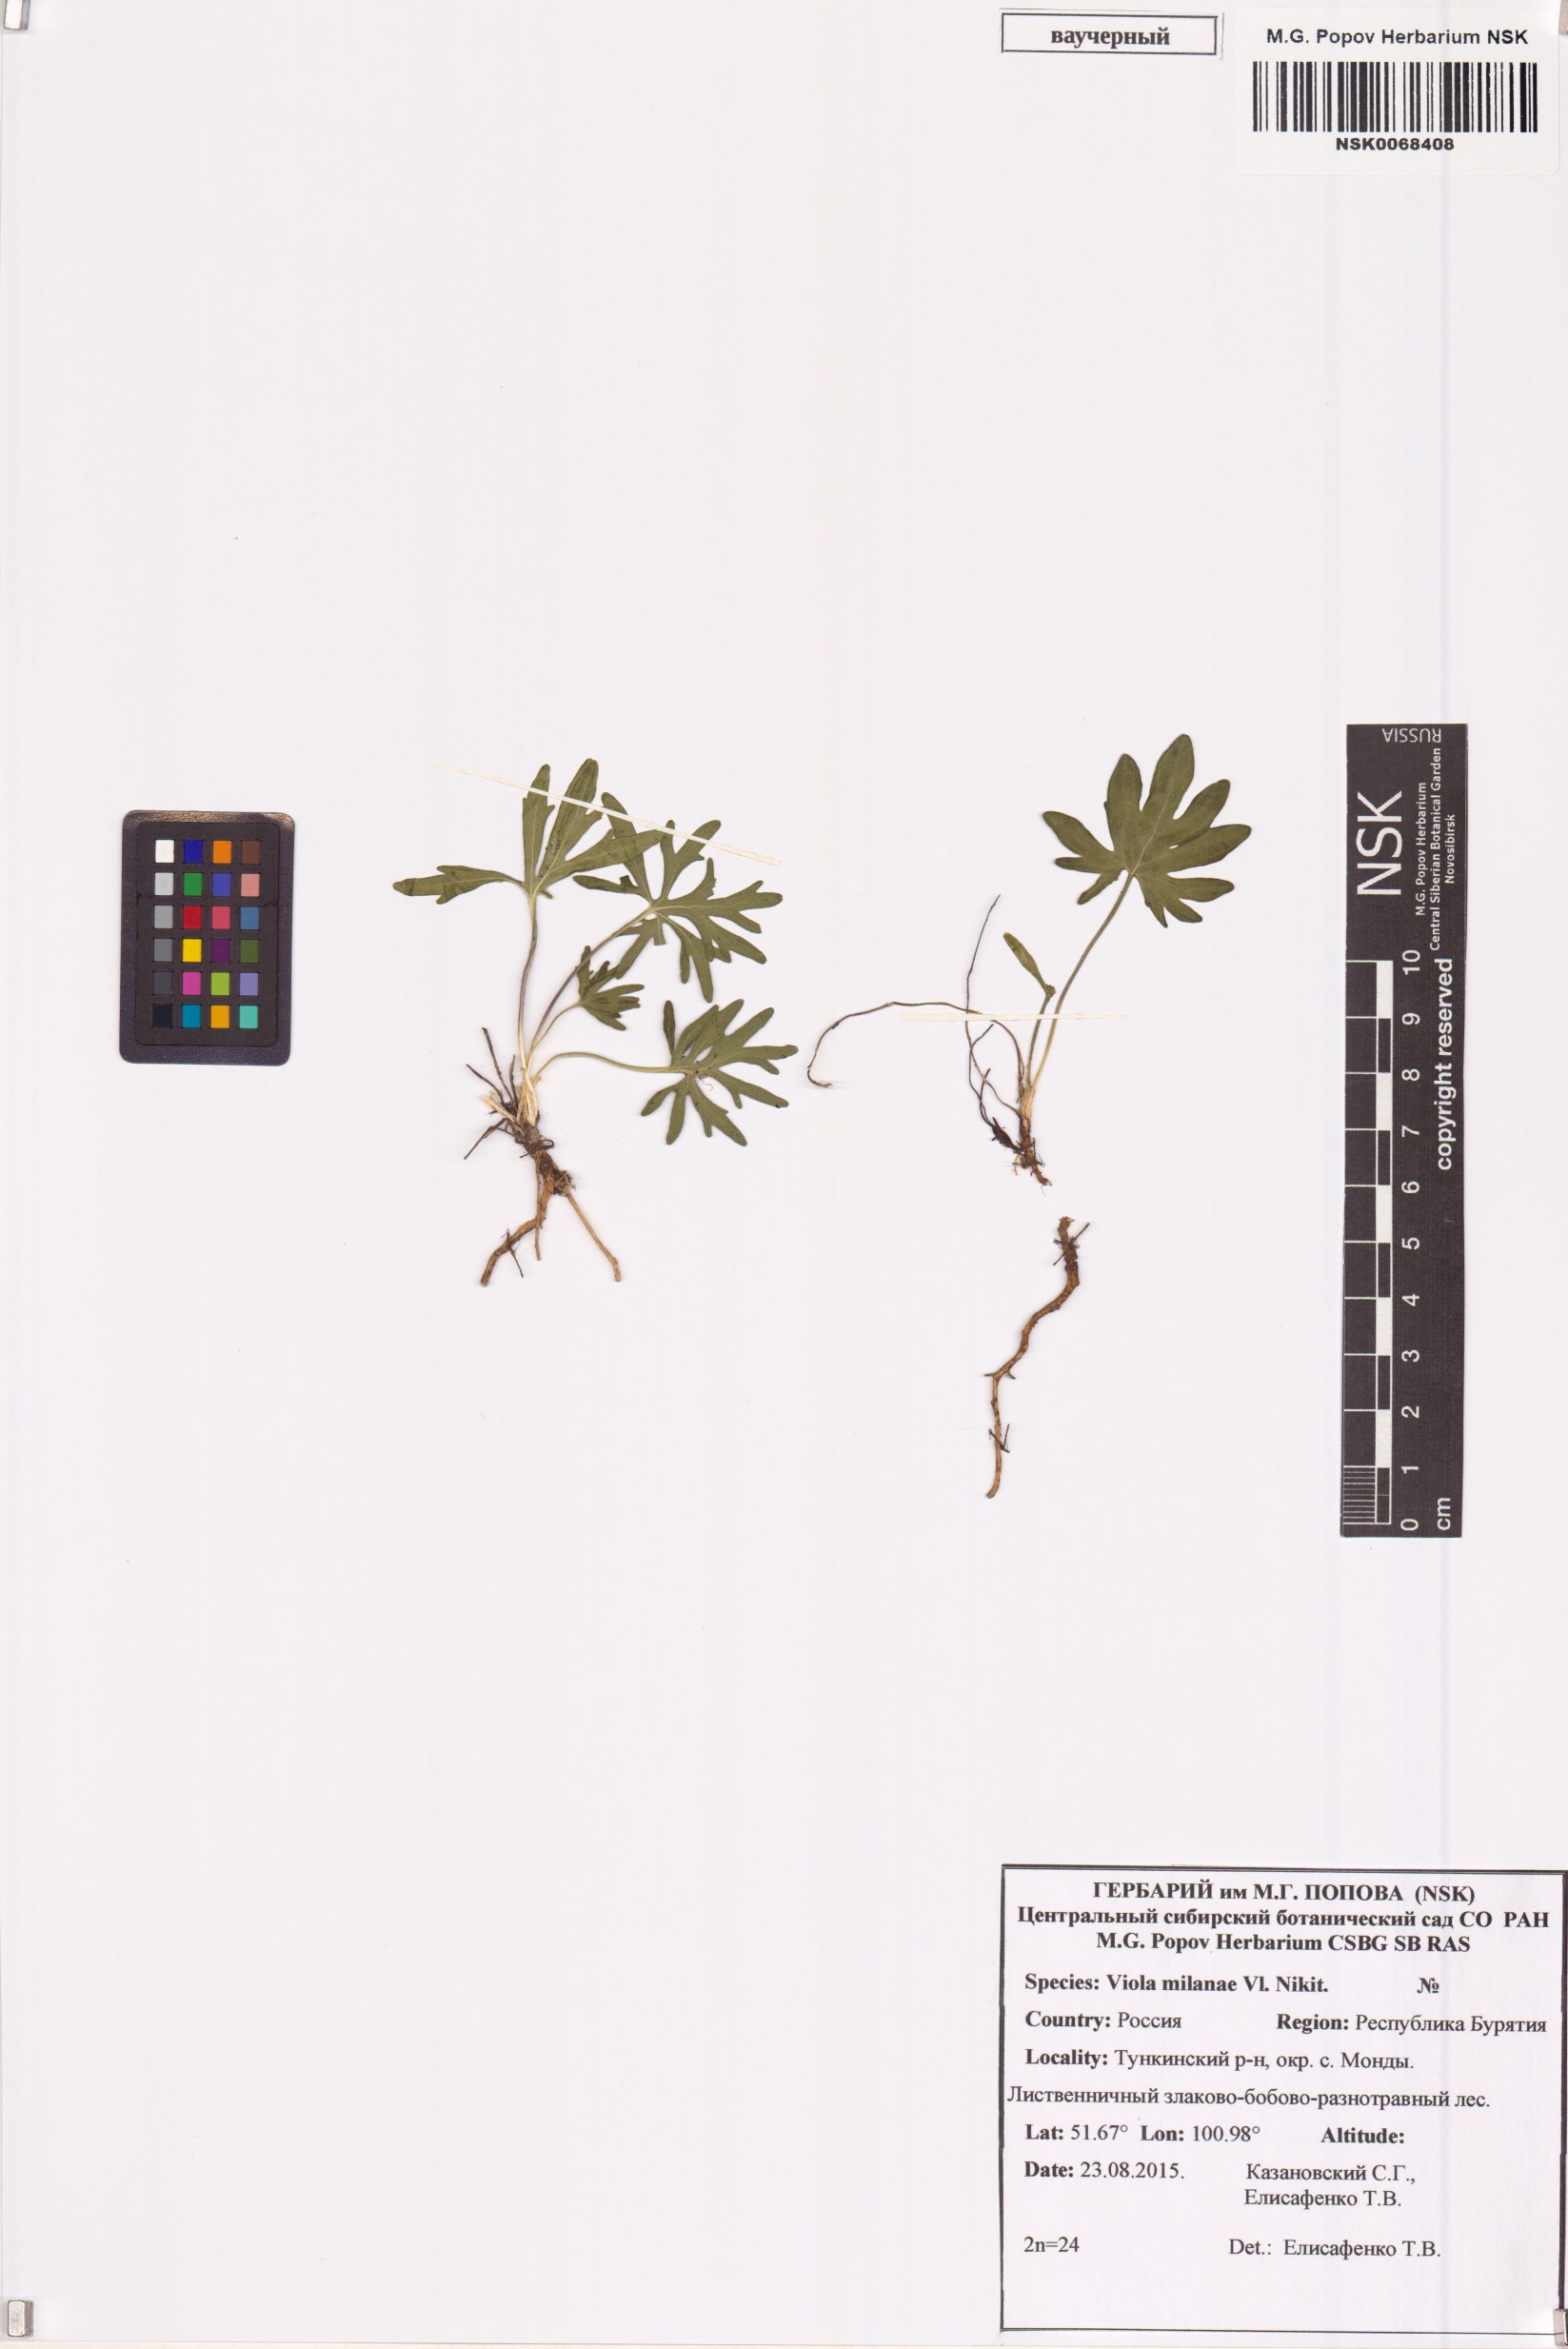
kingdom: Plantae
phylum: Tracheophyta
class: Magnoliopsida
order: Malpighiales
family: Violaceae
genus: Viola
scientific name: Viola multifida
